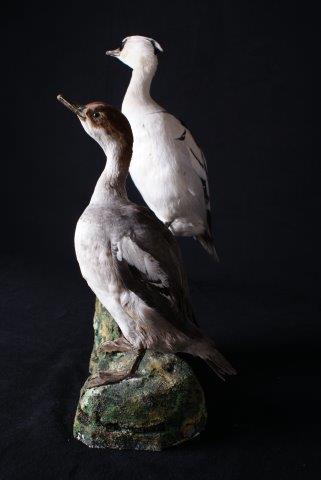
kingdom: Animalia
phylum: Chordata
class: Aves
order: Anseriformes
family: Anatidae
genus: Mergellus
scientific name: Mergellus albellus
